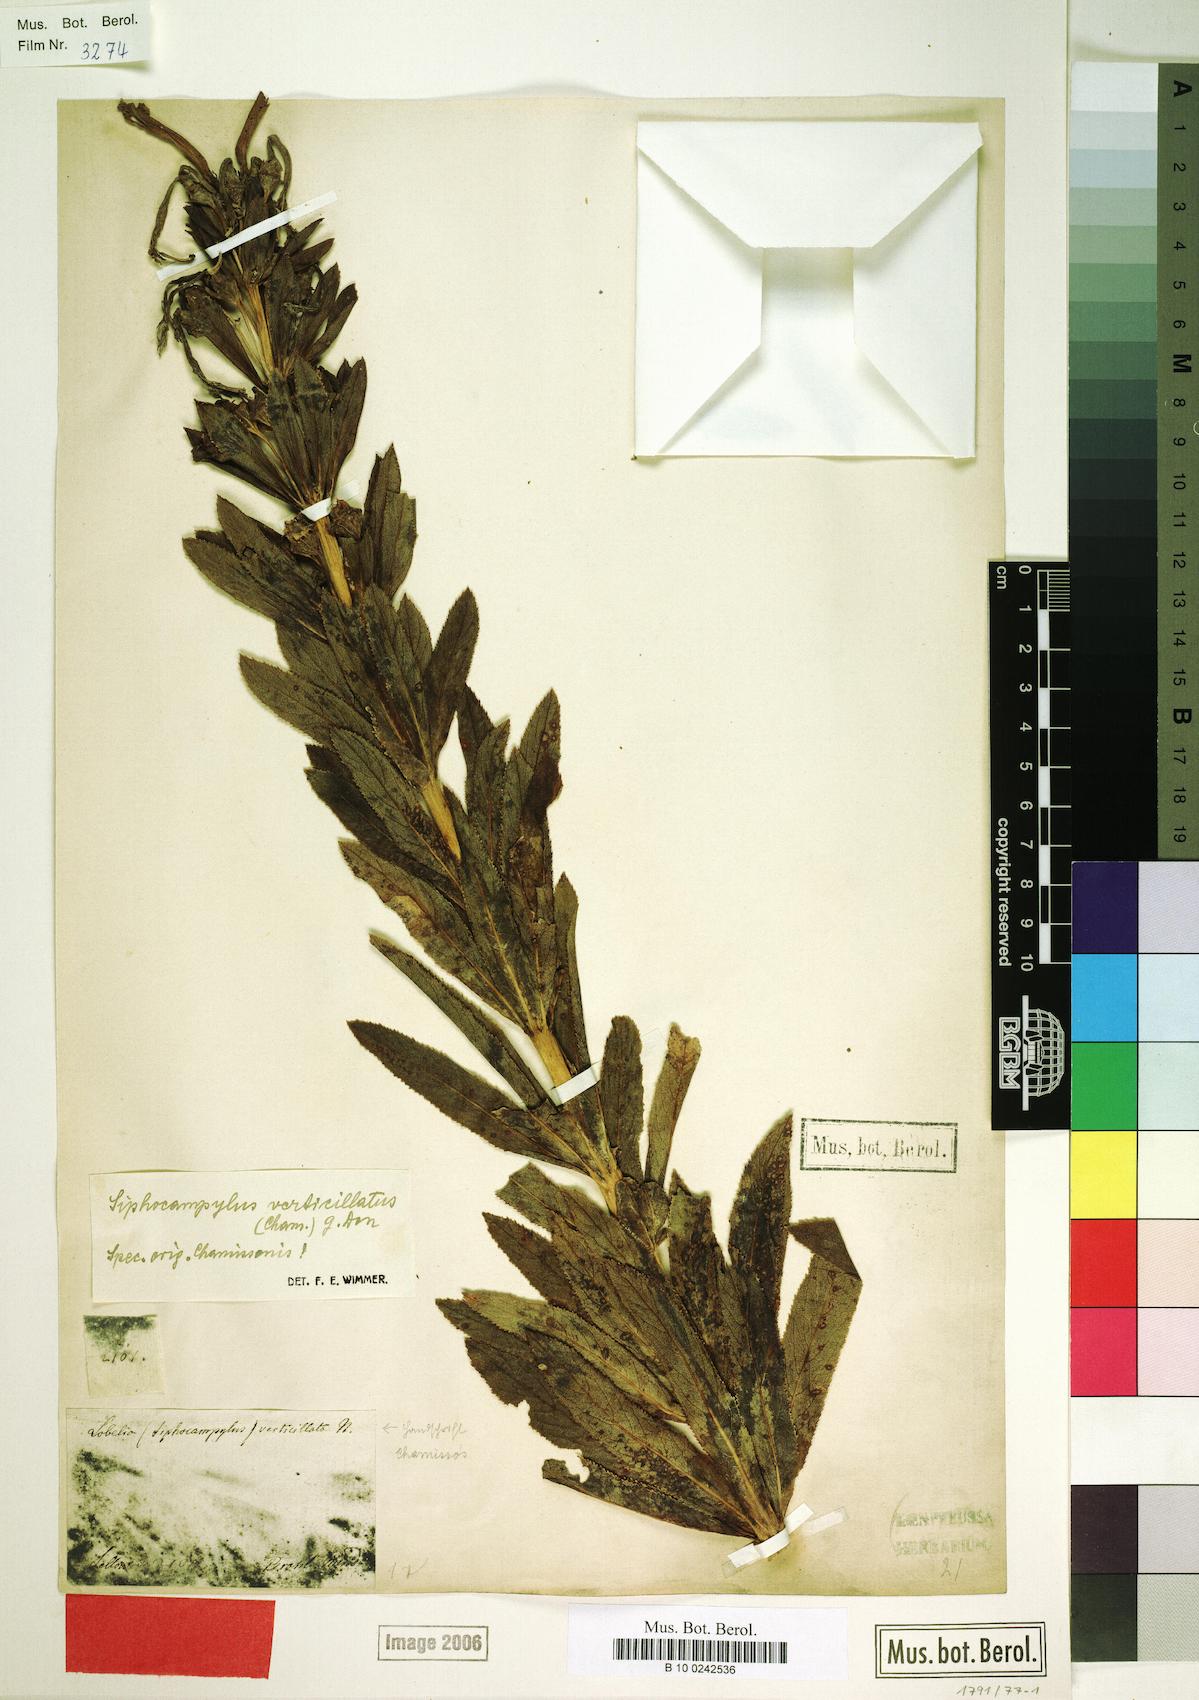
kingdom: Plantae
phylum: Tracheophyta
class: Magnoliopsida
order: Asterales
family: Campanulaceae
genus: Siphocampylus
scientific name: Siphocampylus verticillatus
